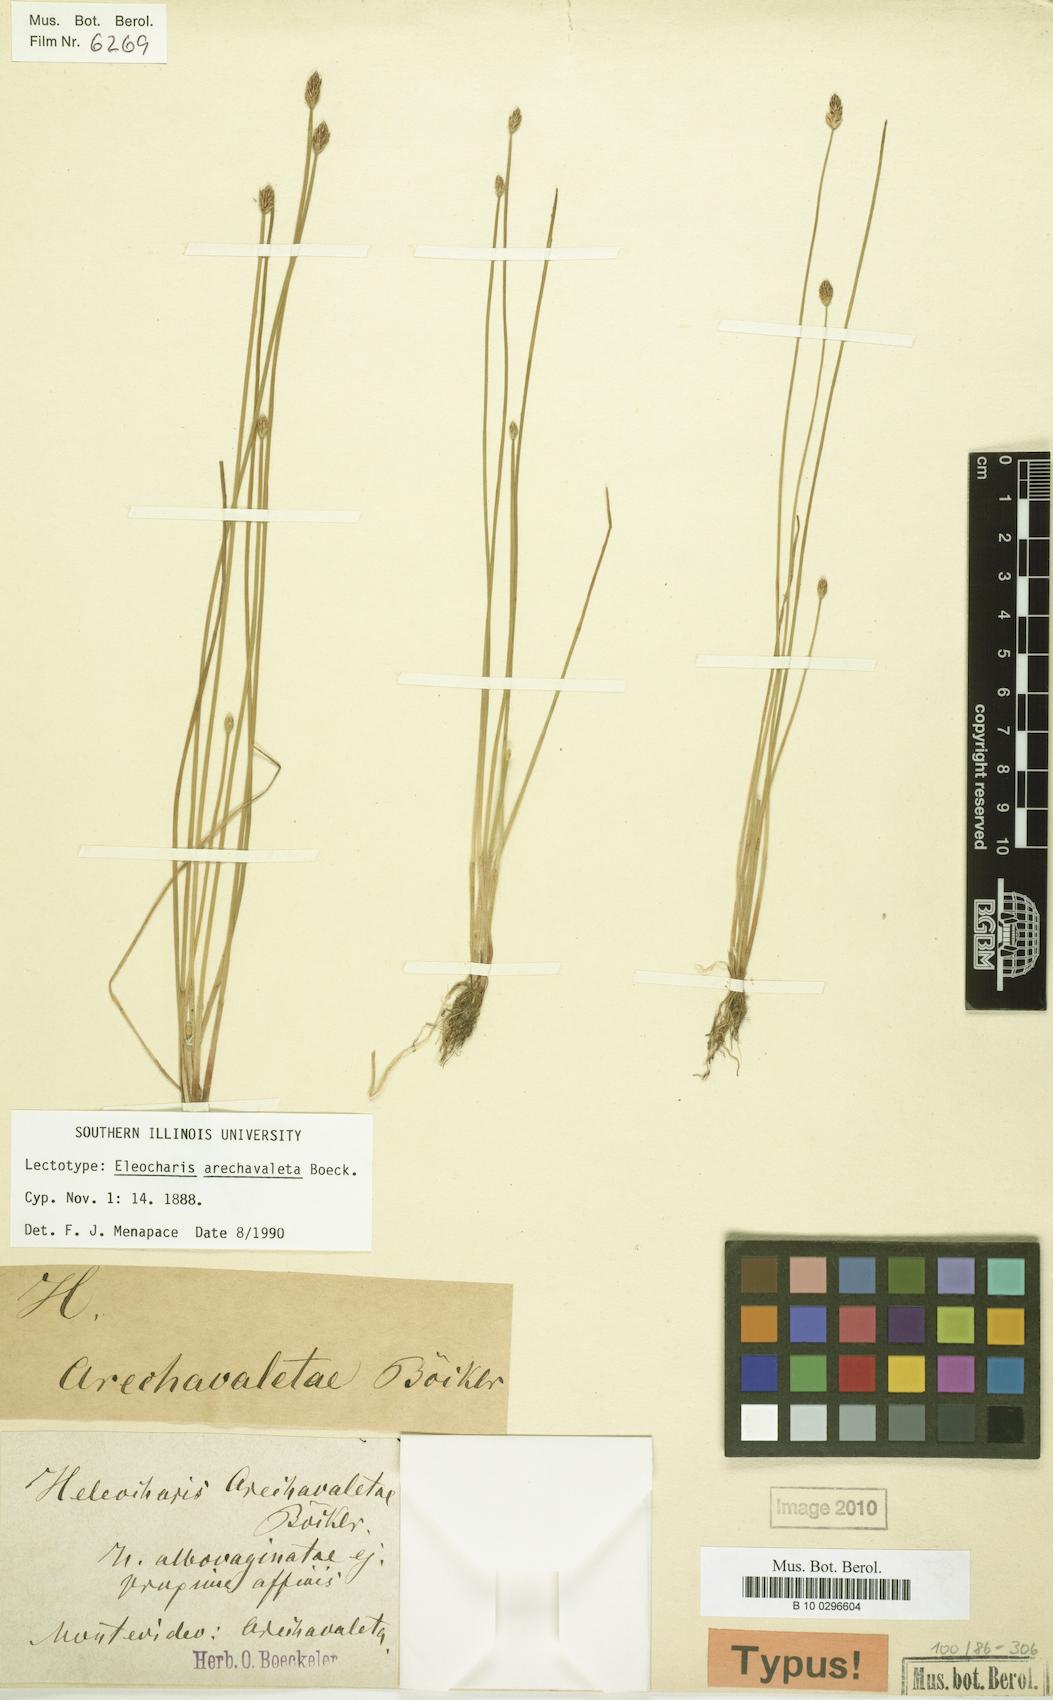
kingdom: Plantae
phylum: Tracheophyta
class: Liliopsida
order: Poales
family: Cyperaceae
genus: Eleocharis
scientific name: Eleocharis flavescens
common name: Yellow spikerush
